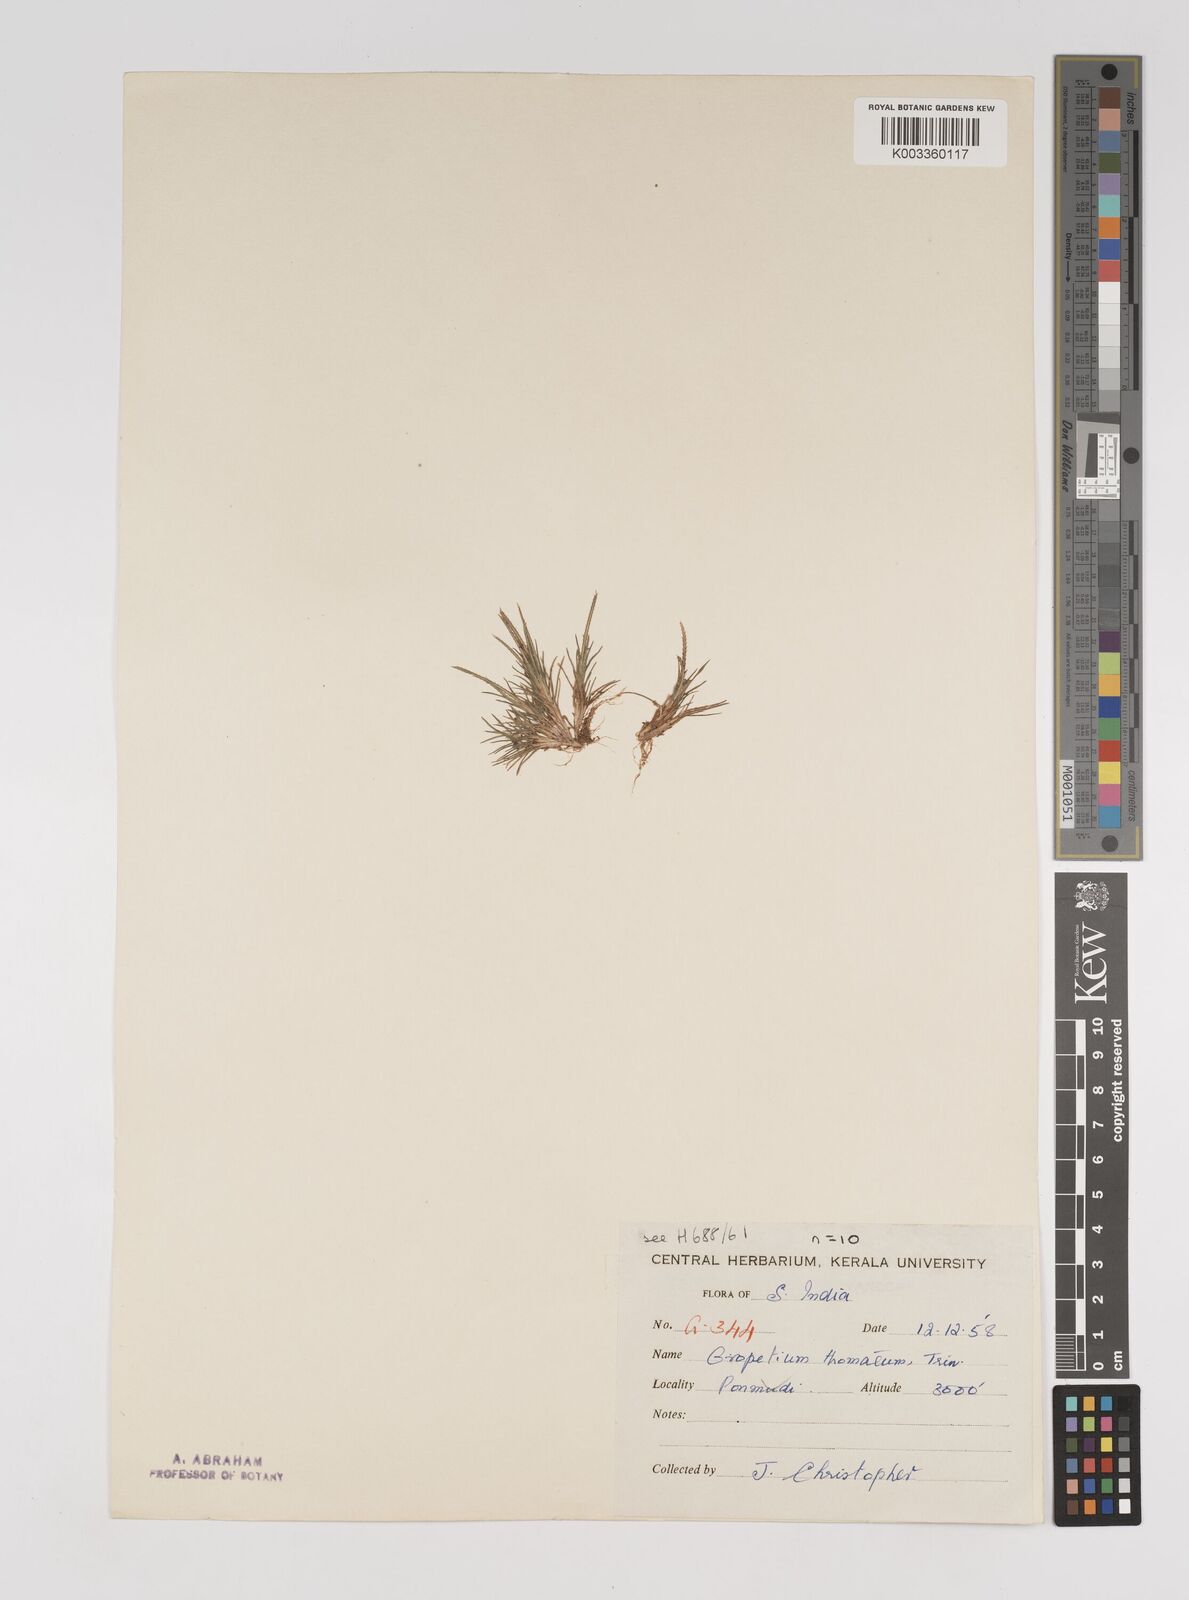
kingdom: Plantae
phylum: Tracheophyta
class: Liliopsida
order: Poales
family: Poaceae
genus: Oropetium
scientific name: Oropetium thomaeum
